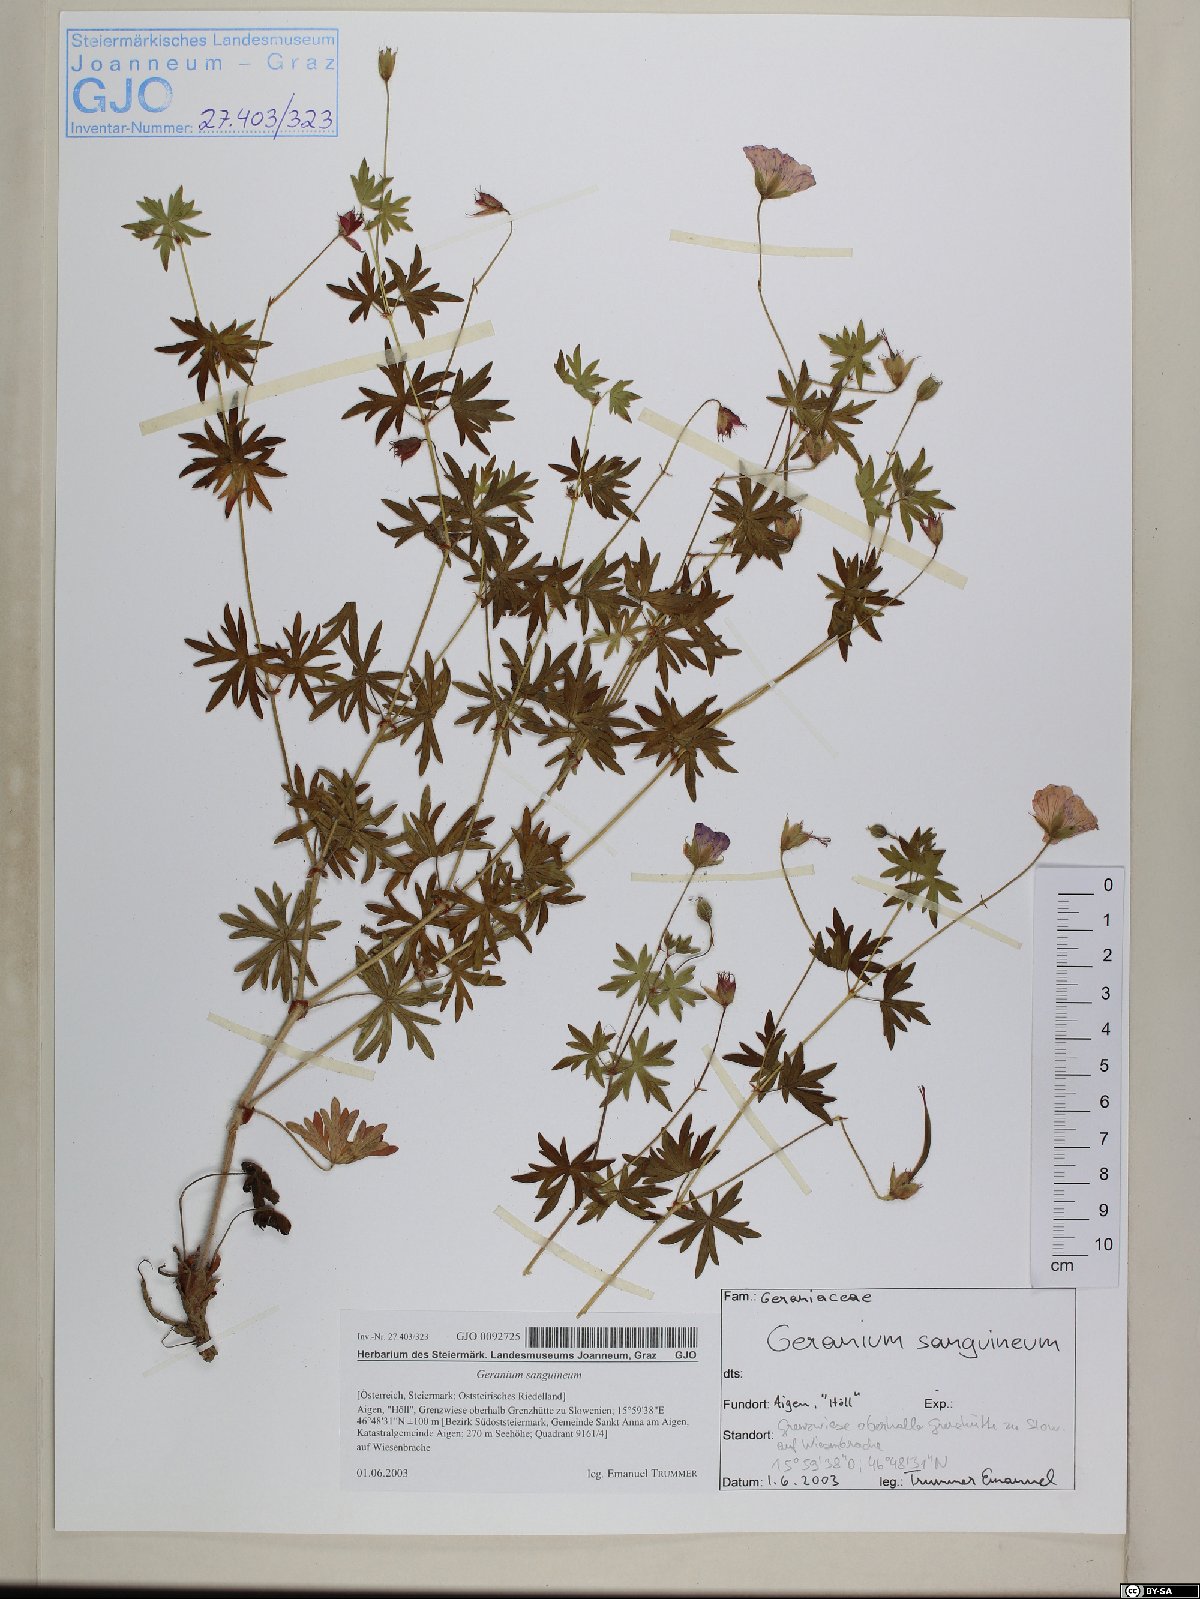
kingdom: Plantae
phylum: Tracheophyta
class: Magnoliopsida
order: Geraniales
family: Geraniaceae
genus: Geranium
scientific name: Geranium sanguineum
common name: Bloody crane's-bill
